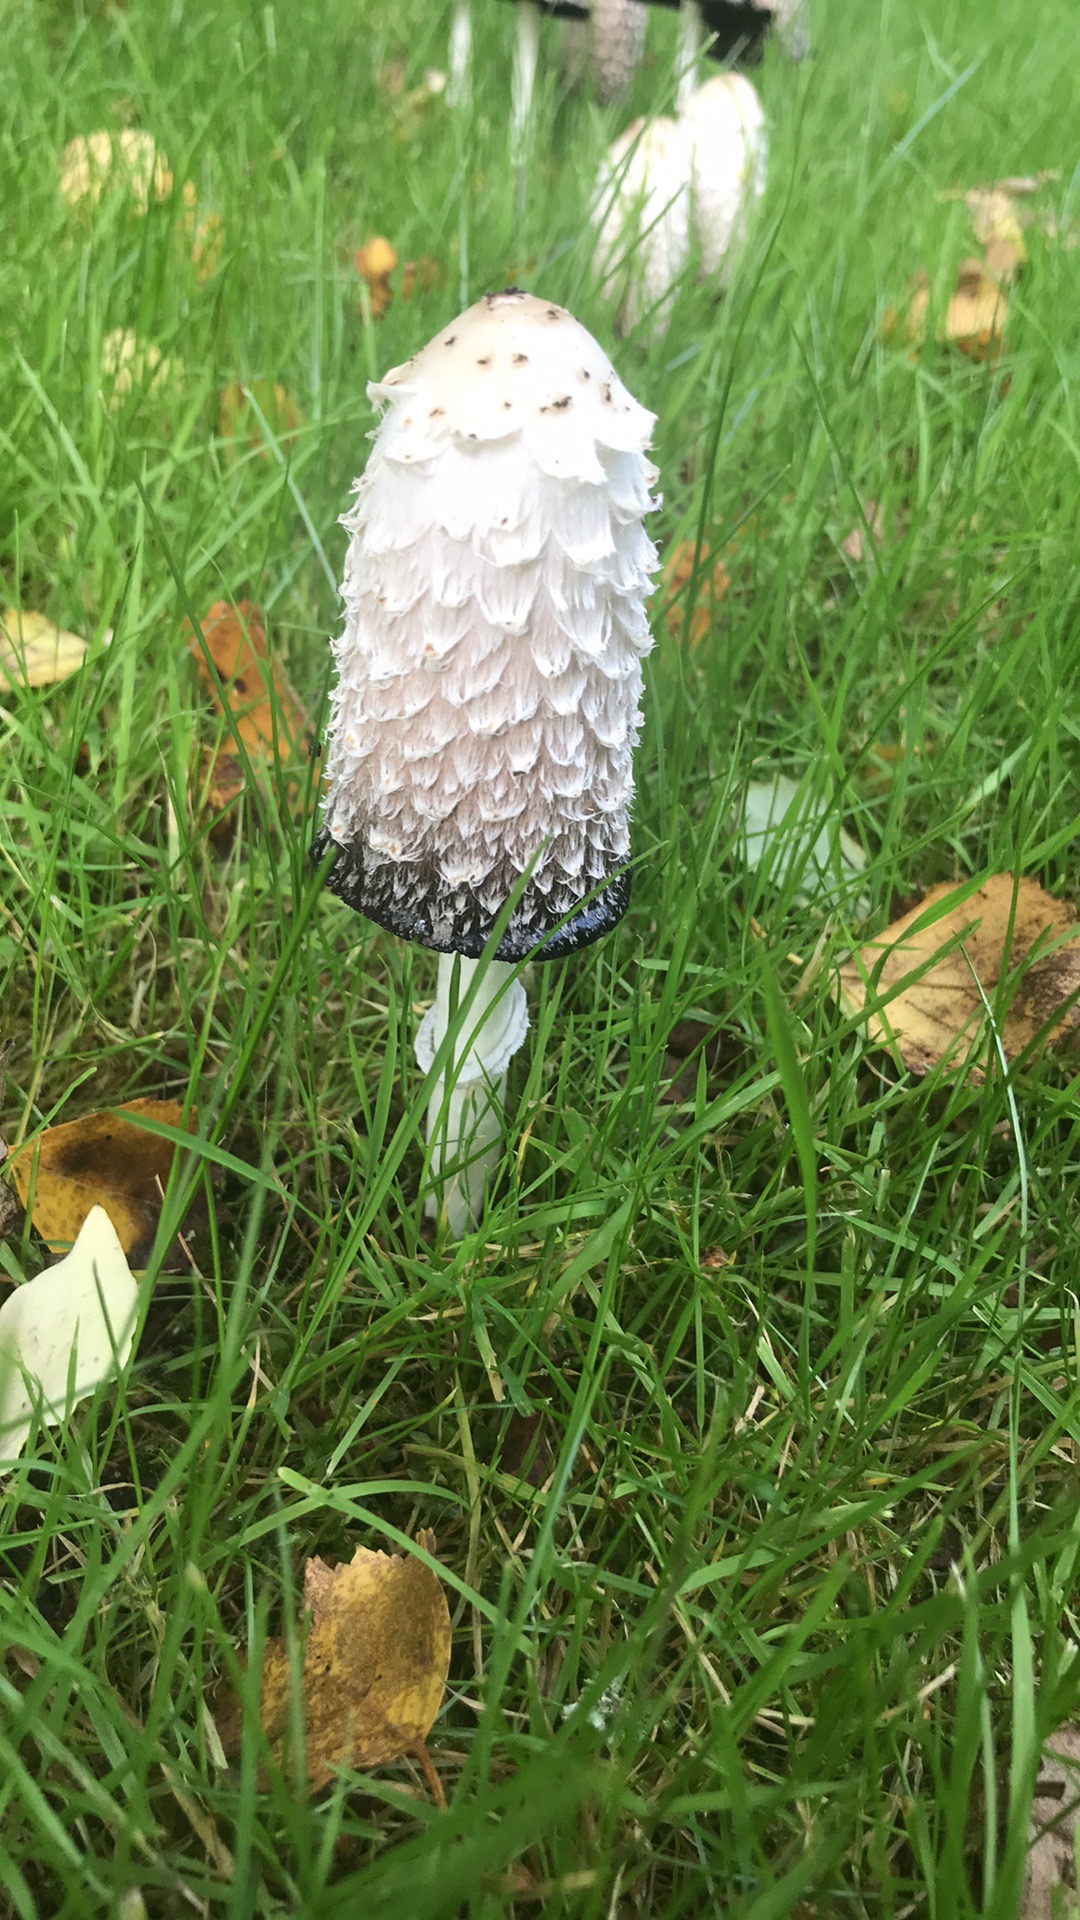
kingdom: Fungi
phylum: Basidiomycota
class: Agaricomycetes
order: Agaricales
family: Agaricaceae
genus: Coprinus
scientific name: Coprinus comatus
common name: stor parykhat
